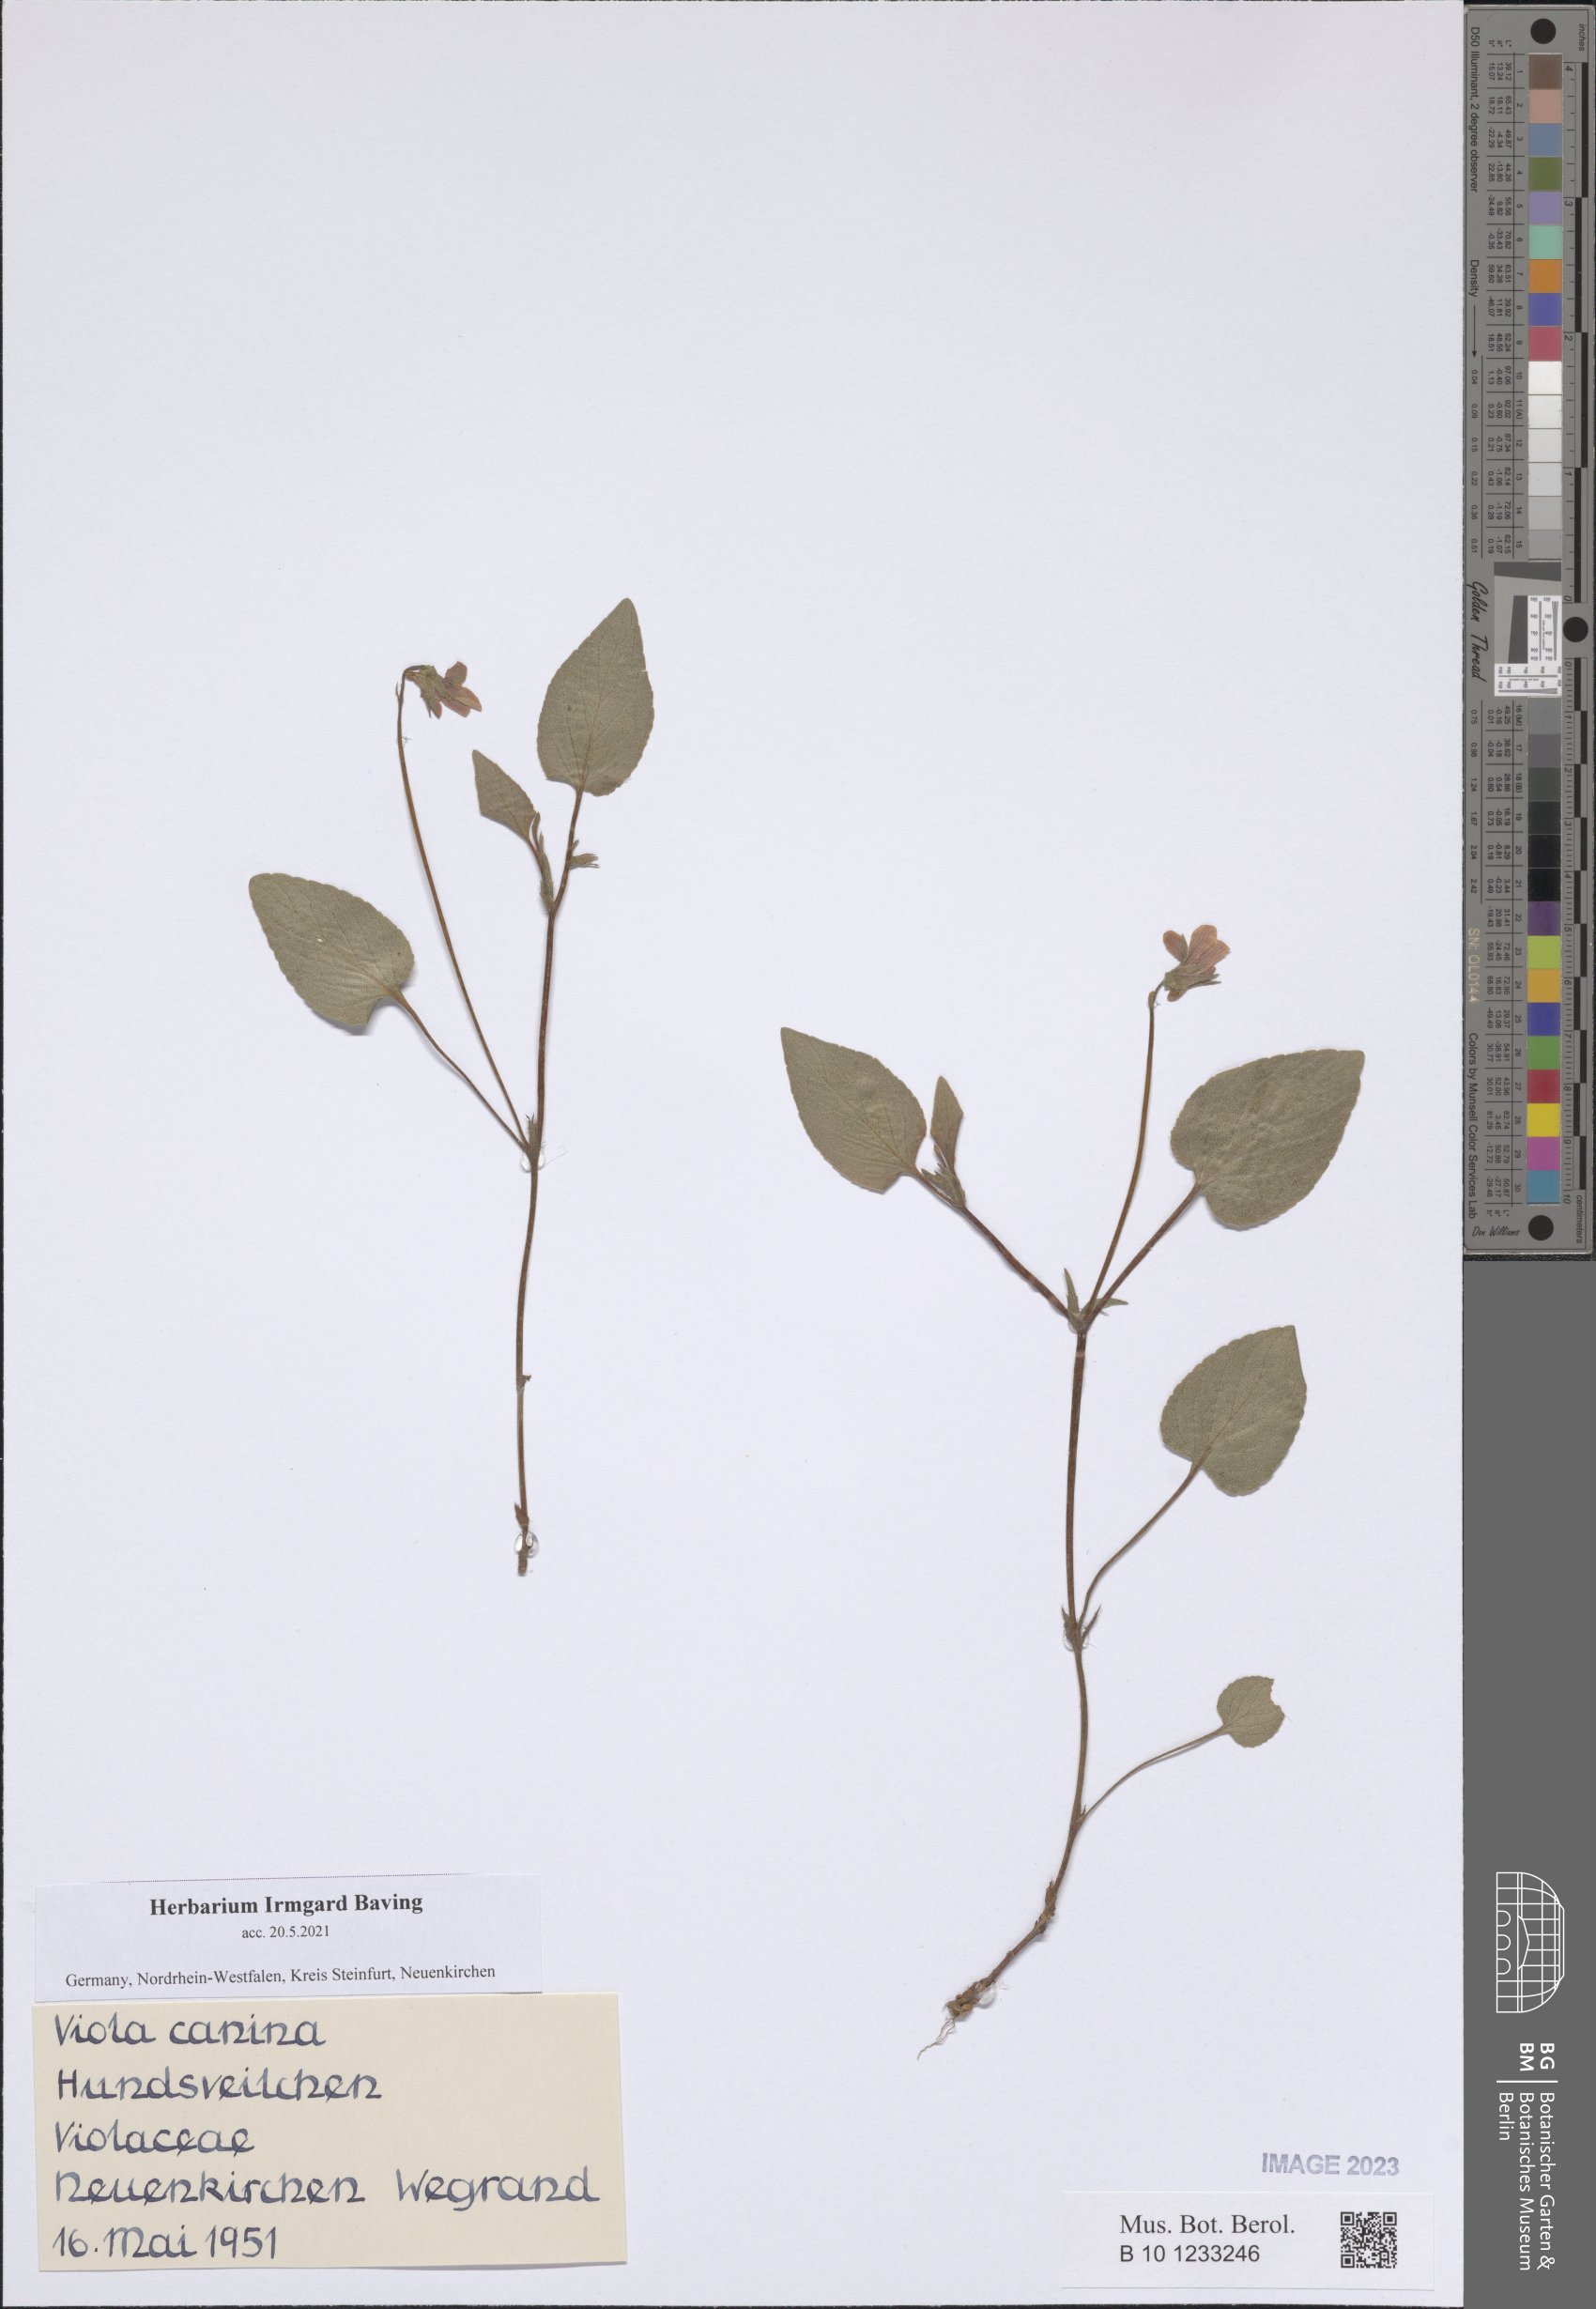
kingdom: Plantae
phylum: Tracheophyta
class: Magnoliopsida
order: Malpighiales
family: Violaceae
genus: Viola
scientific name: Viola canina
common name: Heath dog-violet
